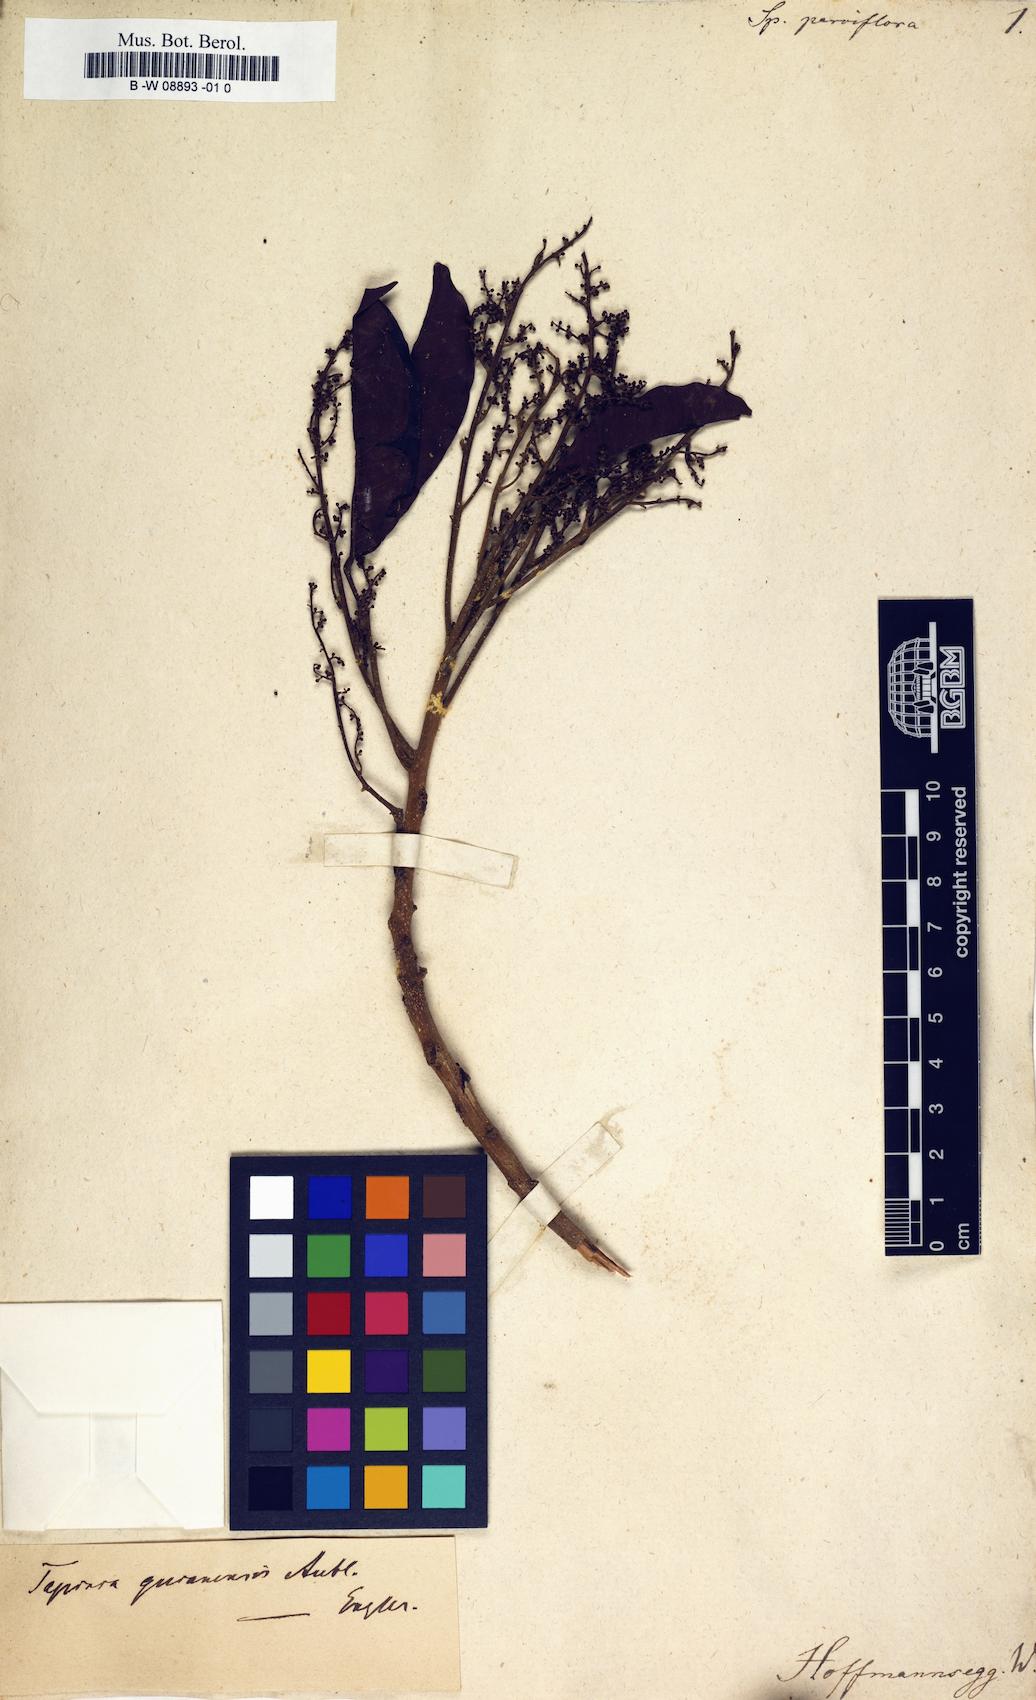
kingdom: Plantae
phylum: Tracheophyta
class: Magnoliopsida
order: Sapindales
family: Anacardiaceae
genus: Tapirira
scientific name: Tapirira guianensis
